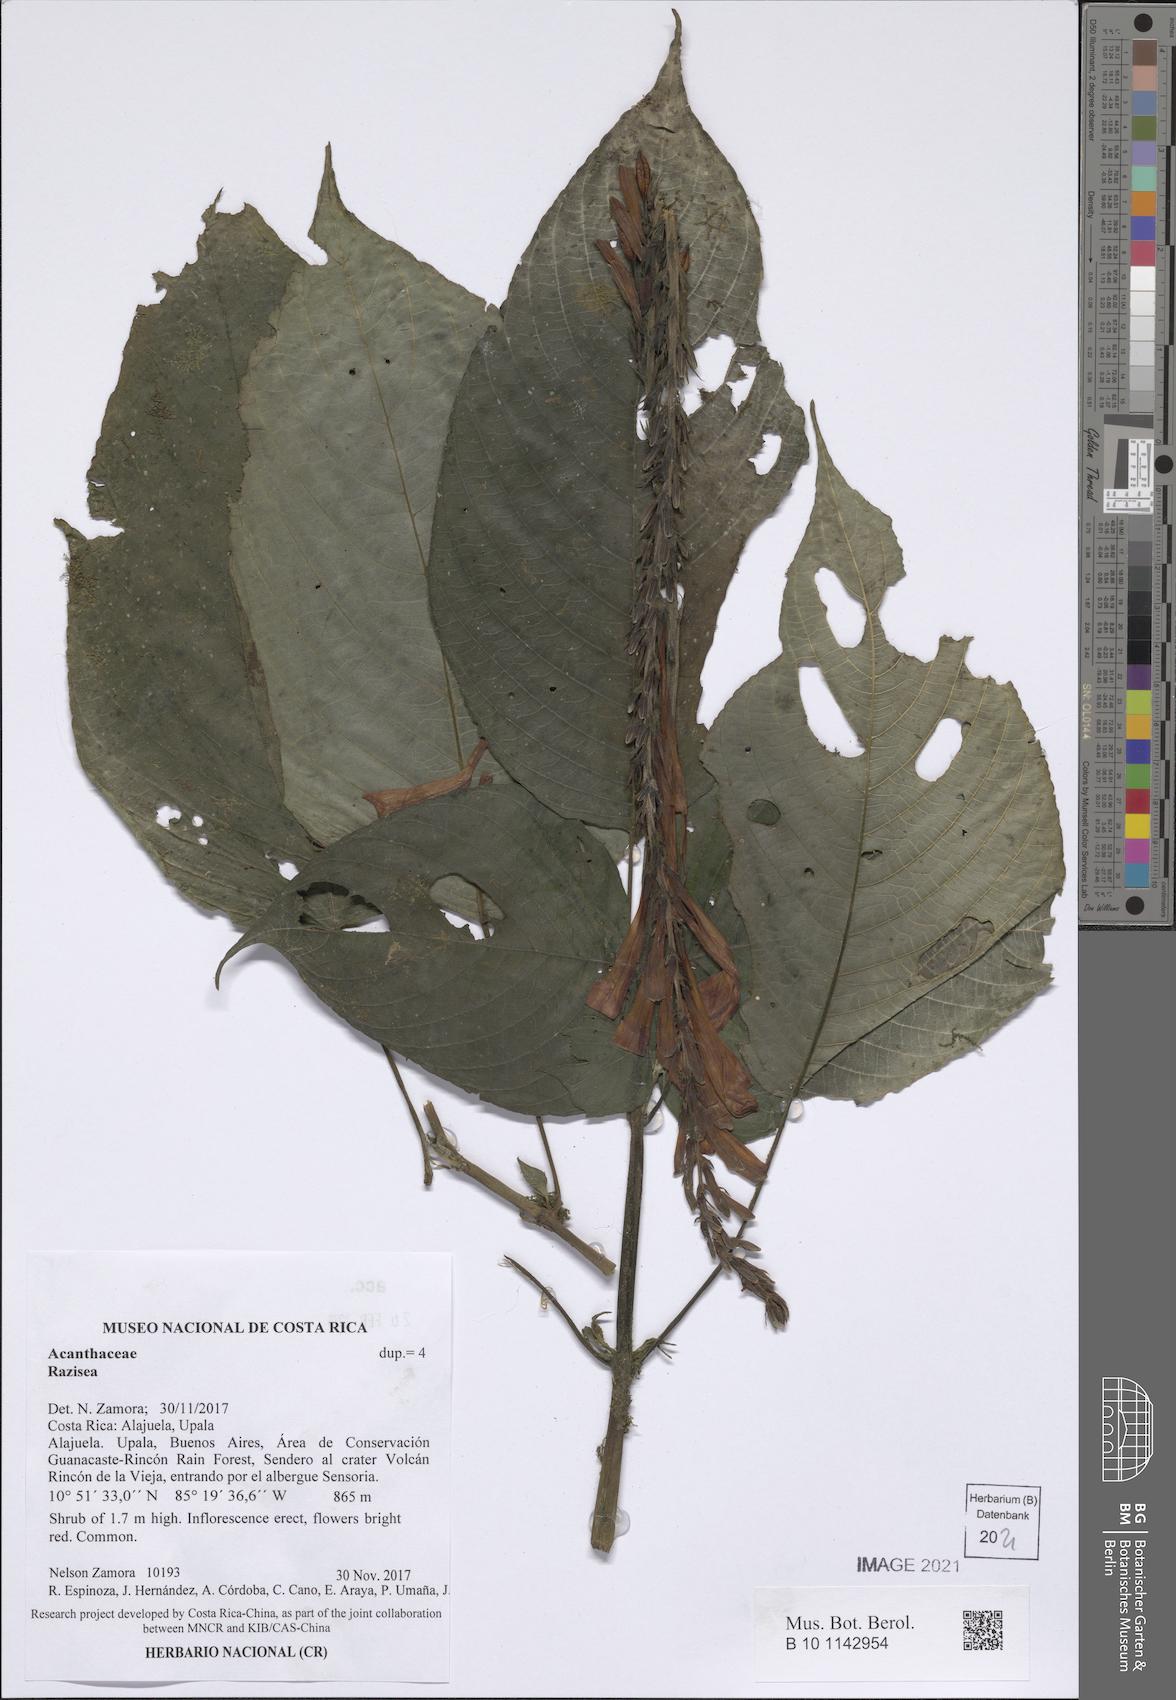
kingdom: Plantae
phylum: Tracheophyta
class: Magnoliopsida
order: Lamiales
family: Acanthaceae
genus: Stenostephanus
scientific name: Stenostephanus
